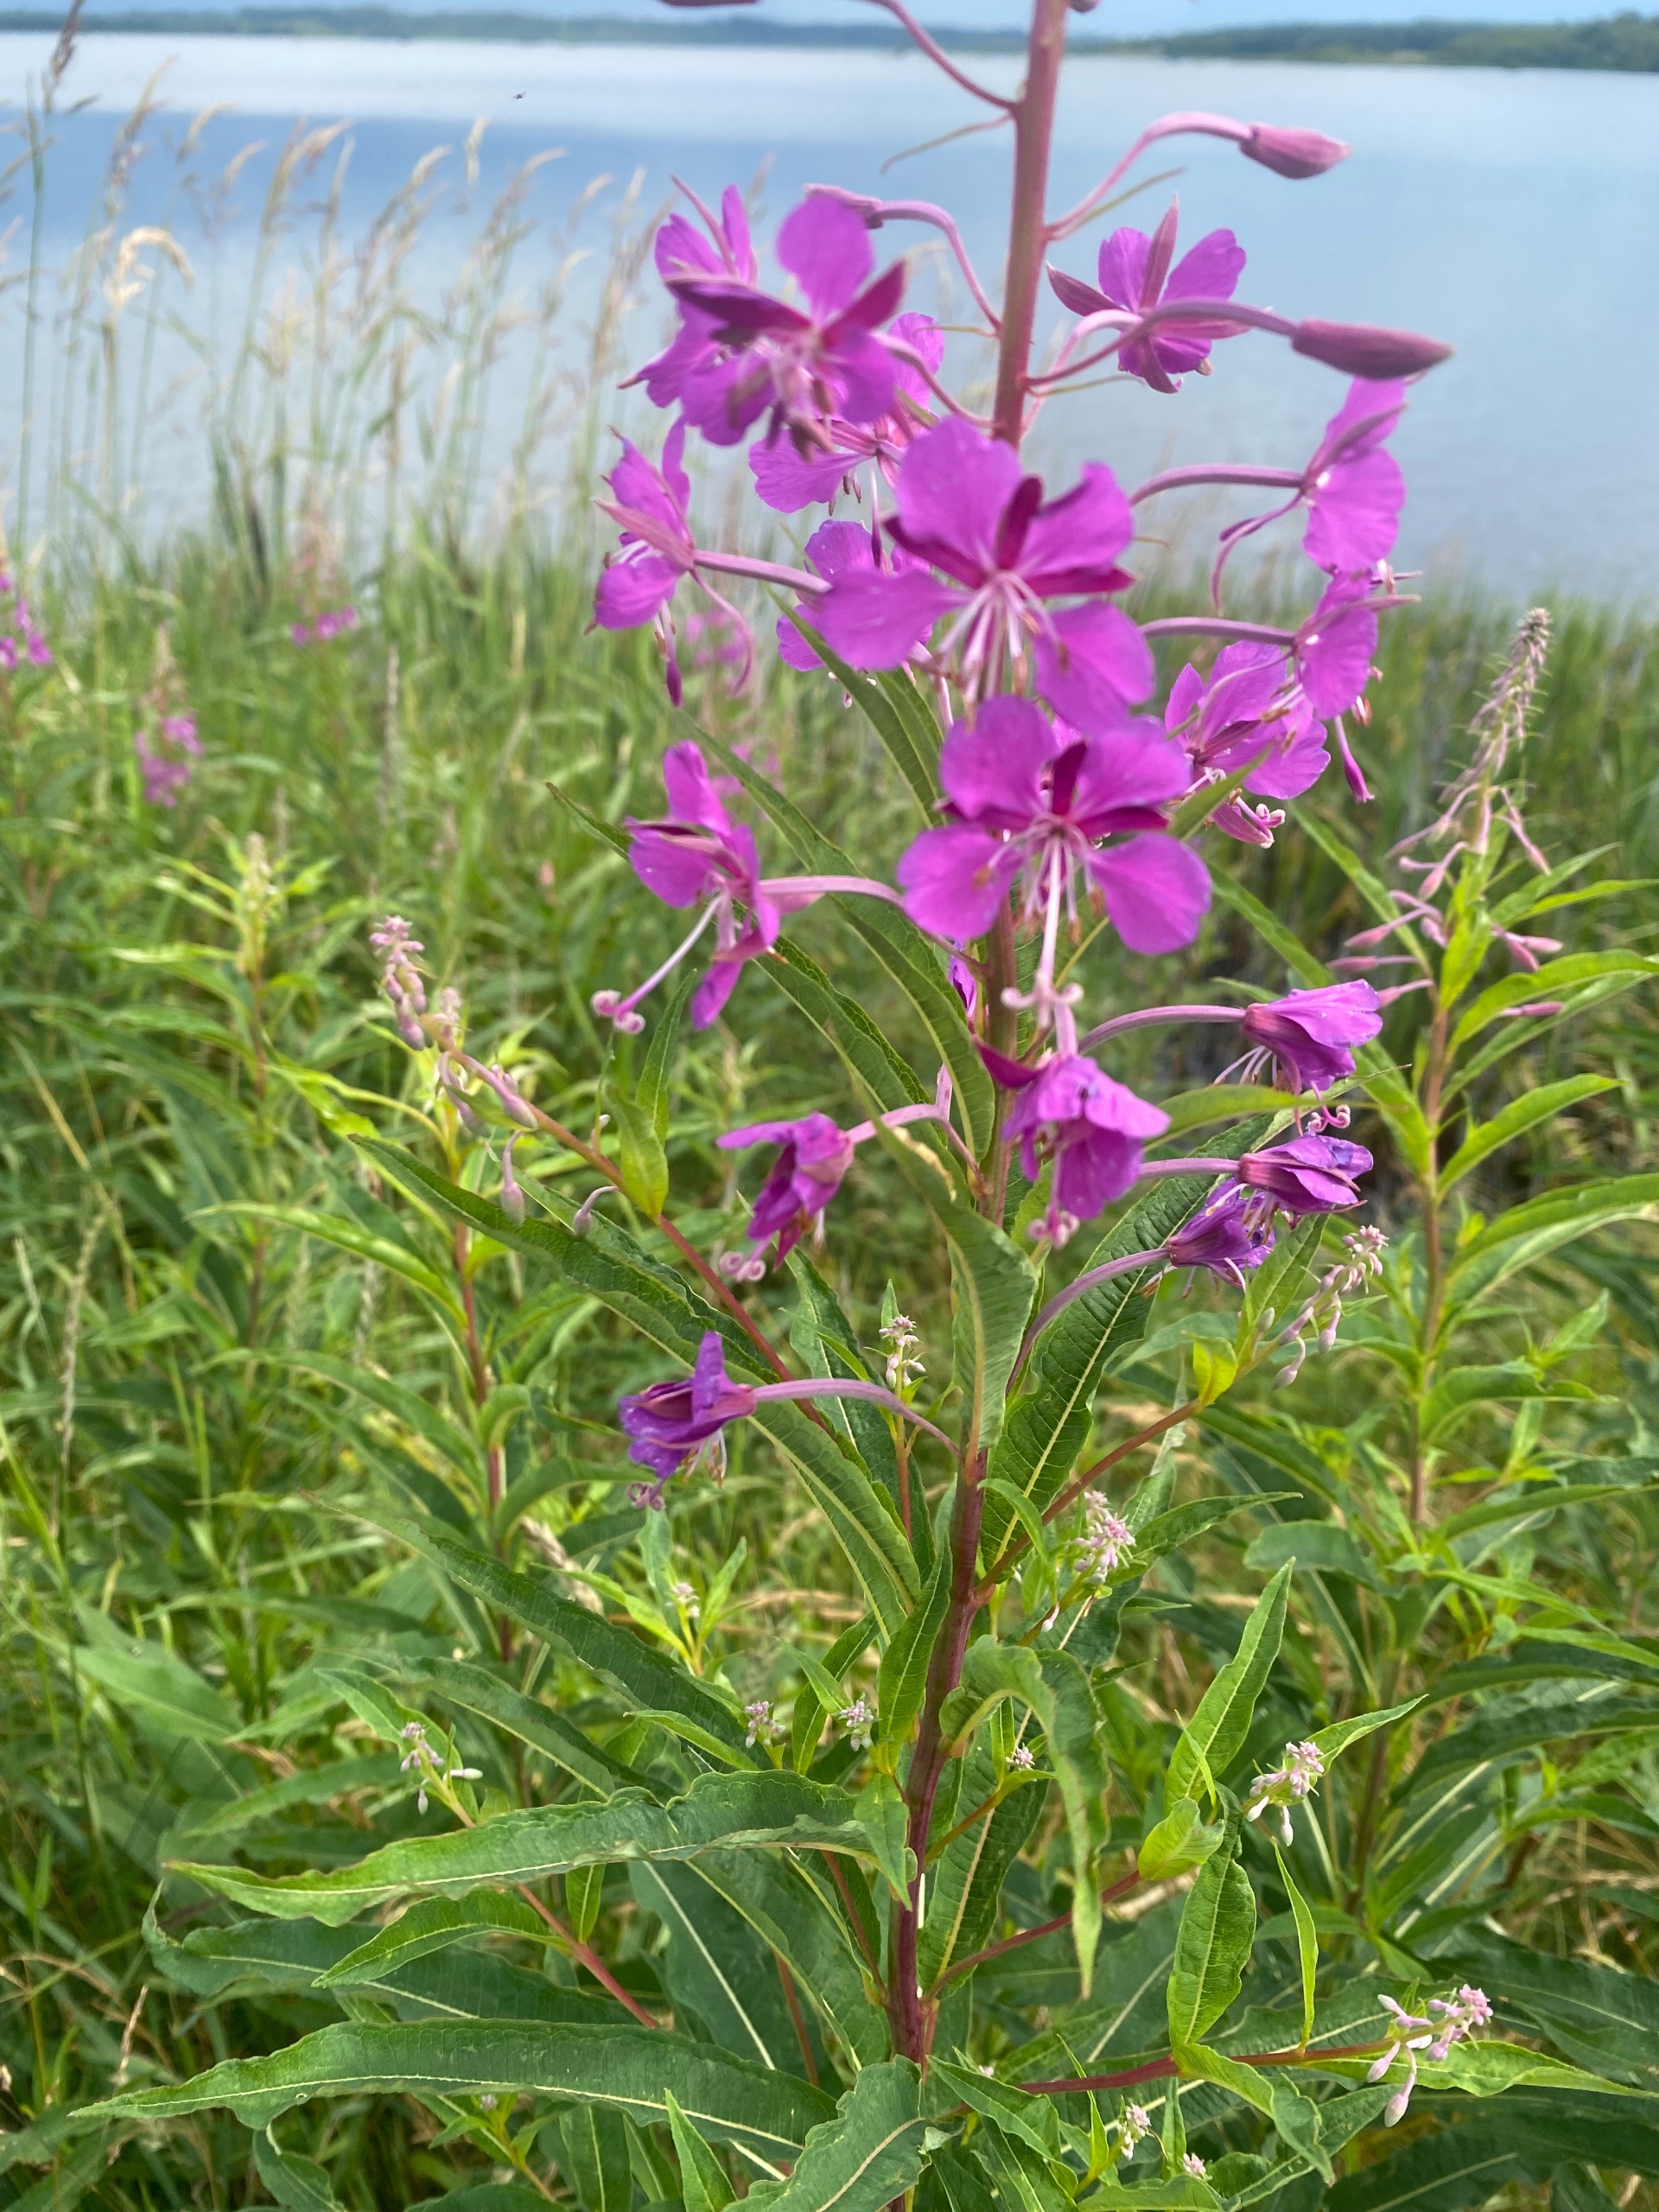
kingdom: Plantae
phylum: Tracheophyta
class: Magnoliopsida
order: Myrtales
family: Onagraceae
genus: Chamaenerion
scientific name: Chamaenerion angustifolium
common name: Gederams
